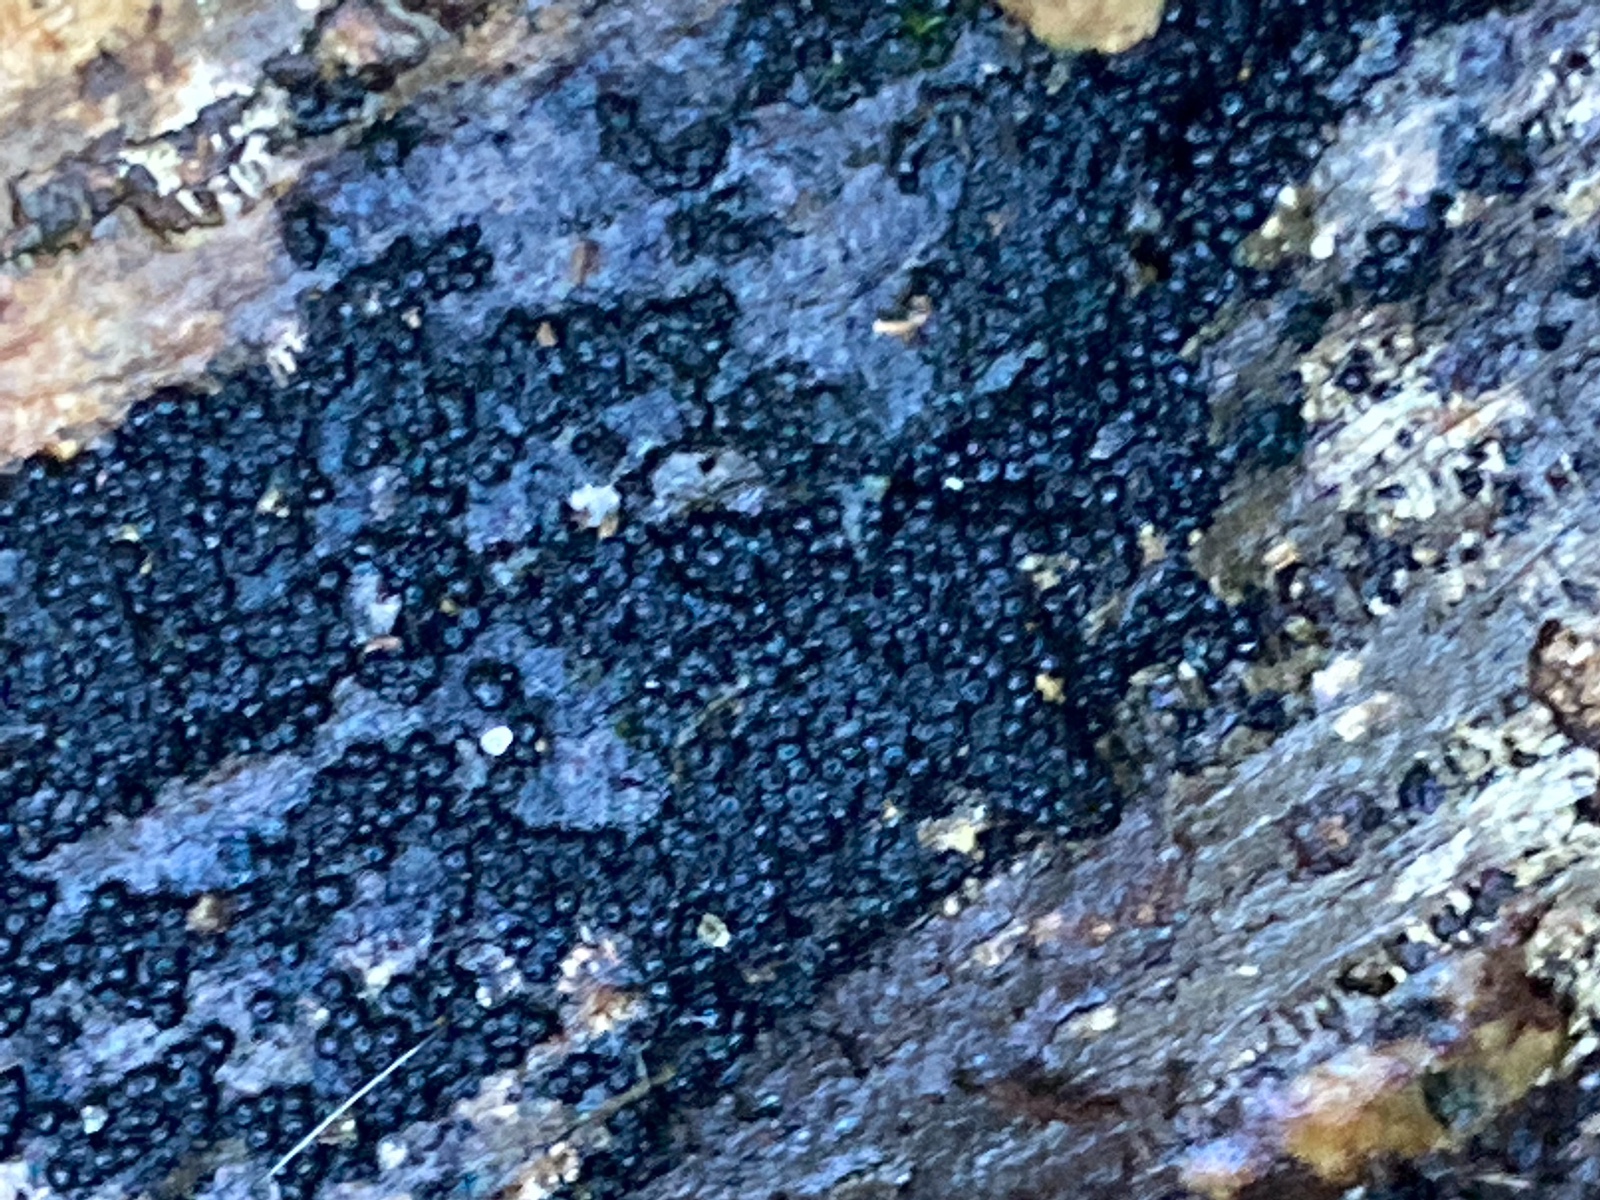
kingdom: Fungi
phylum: Ascomycota
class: Sordariomycetes
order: Coronophorales
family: Scortechiniaceae
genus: Tympanopsis
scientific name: Tympanopsis confertula
